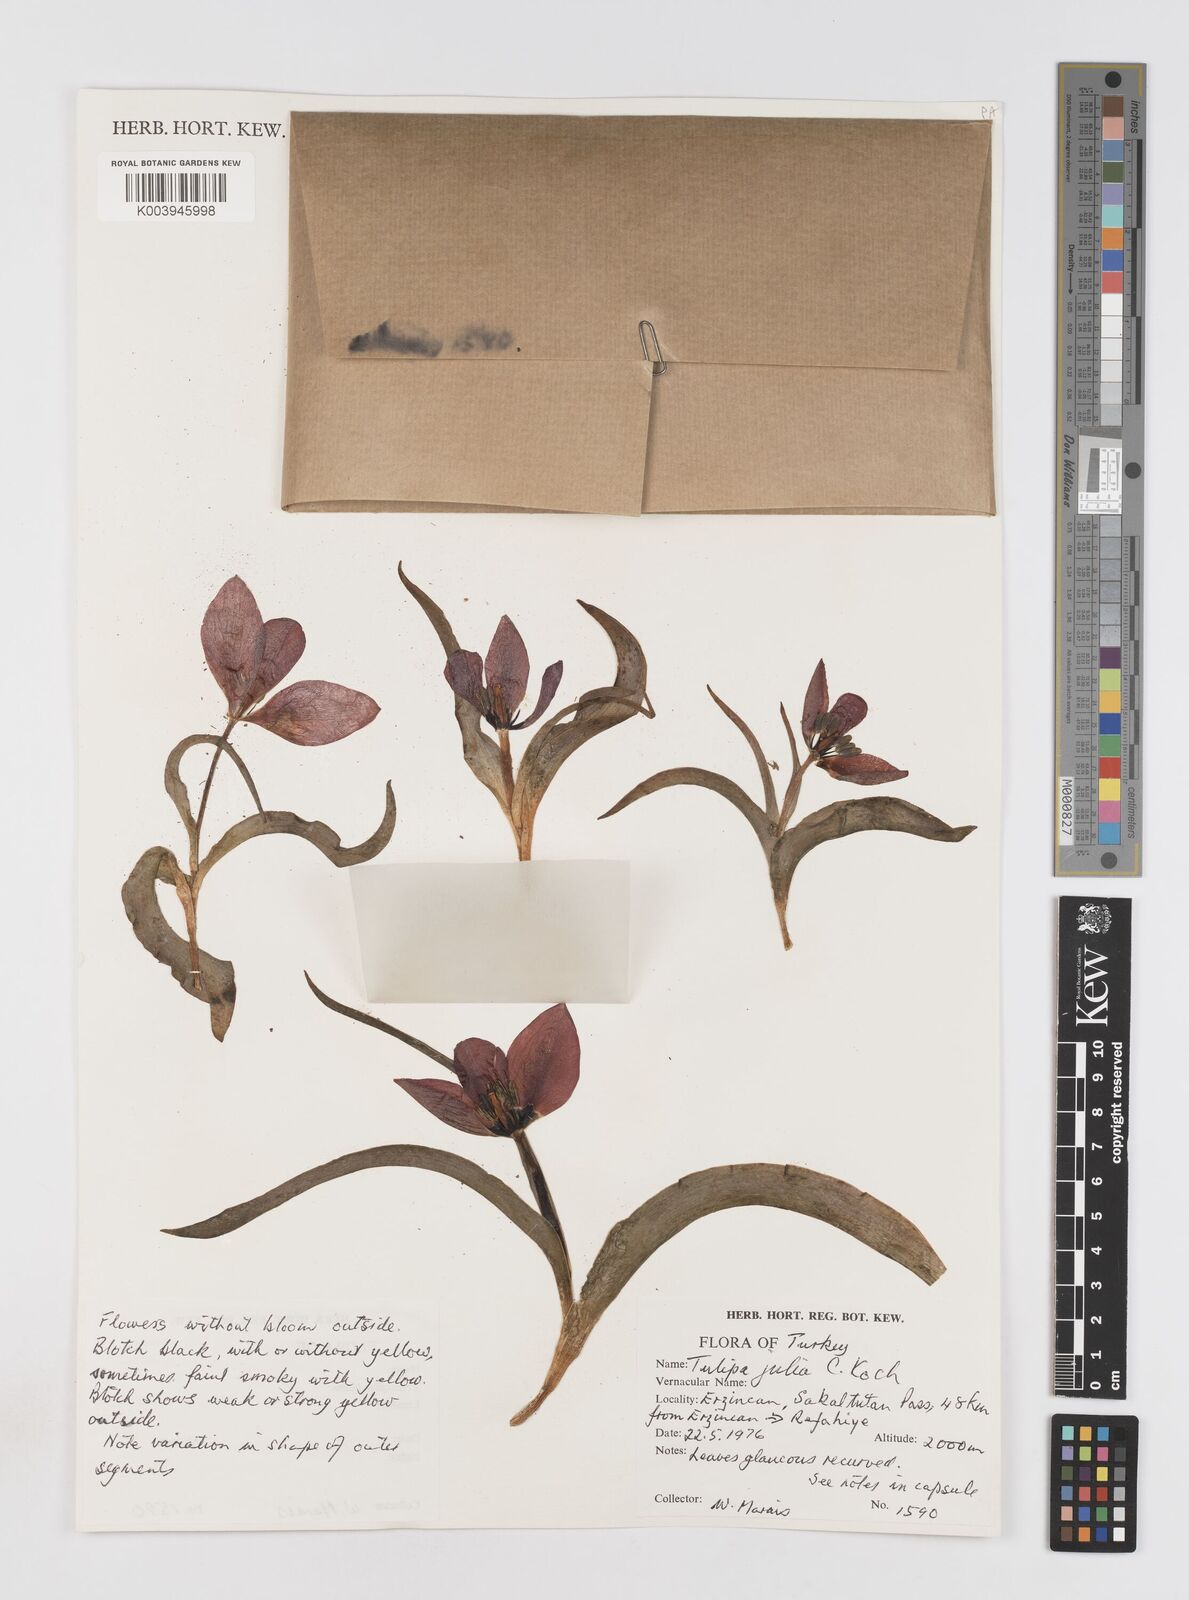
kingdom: Plantae
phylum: Tracheophyta
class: Liliopsida
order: Liliales
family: Liliaceae
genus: Tulipa
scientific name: Tulipa julia
